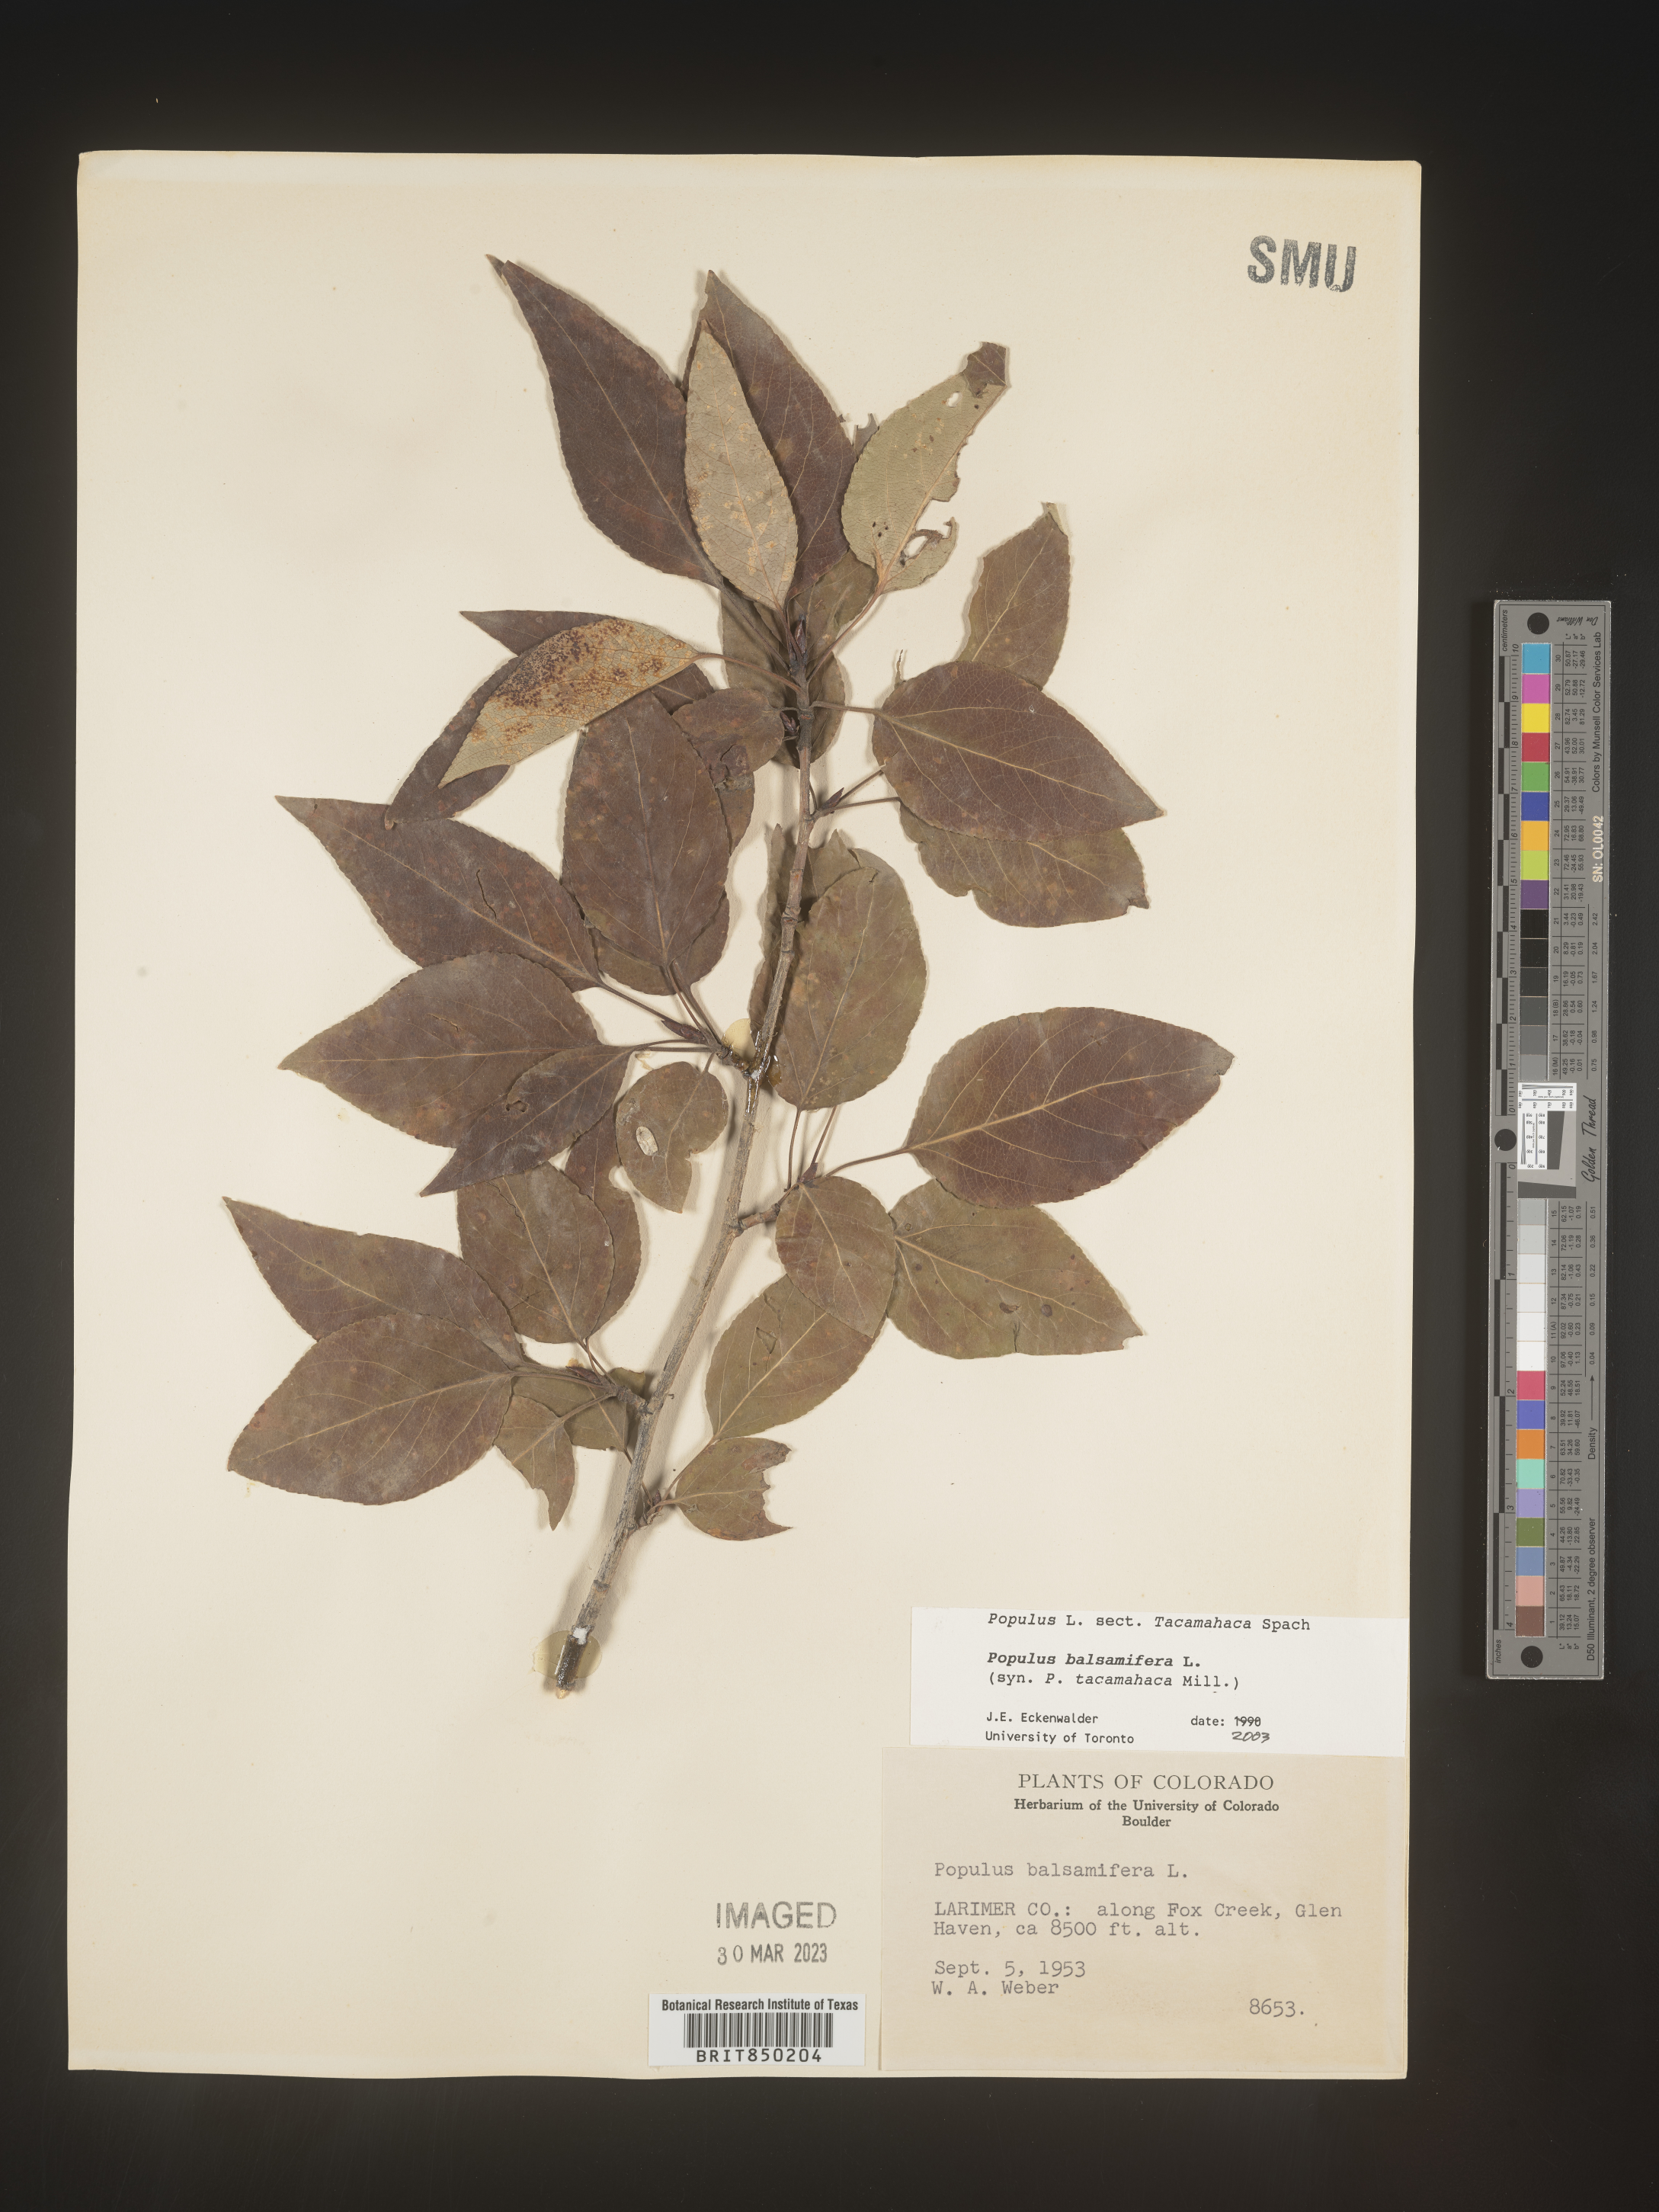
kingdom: Plantae
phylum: Tracheophyta
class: Magnoliopsida
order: Malpighiales
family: Salicaceae
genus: Populus
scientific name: Populus balsamifera
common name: Balsam poplar
